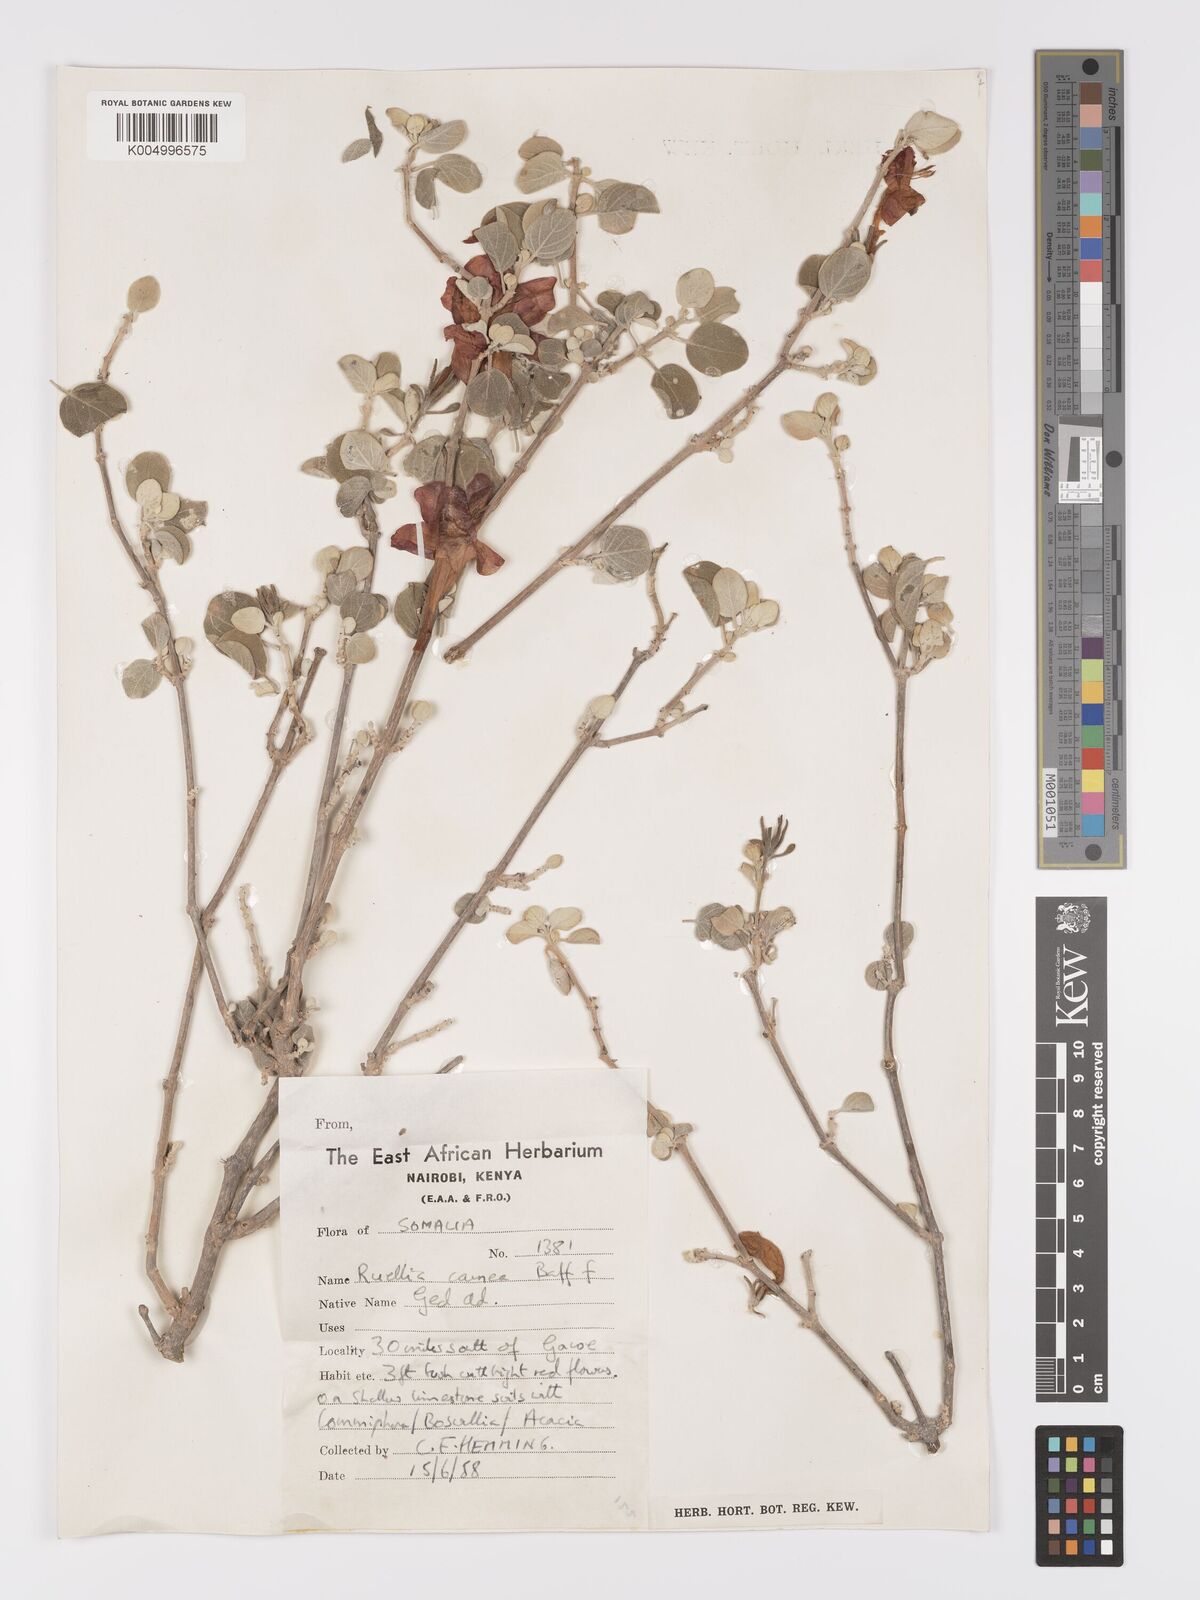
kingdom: Plantae
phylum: Tracheophyta
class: Magnoliopsida
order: Lamiales
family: Acanthaceae
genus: Ruellia
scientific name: Ruellia carnea
